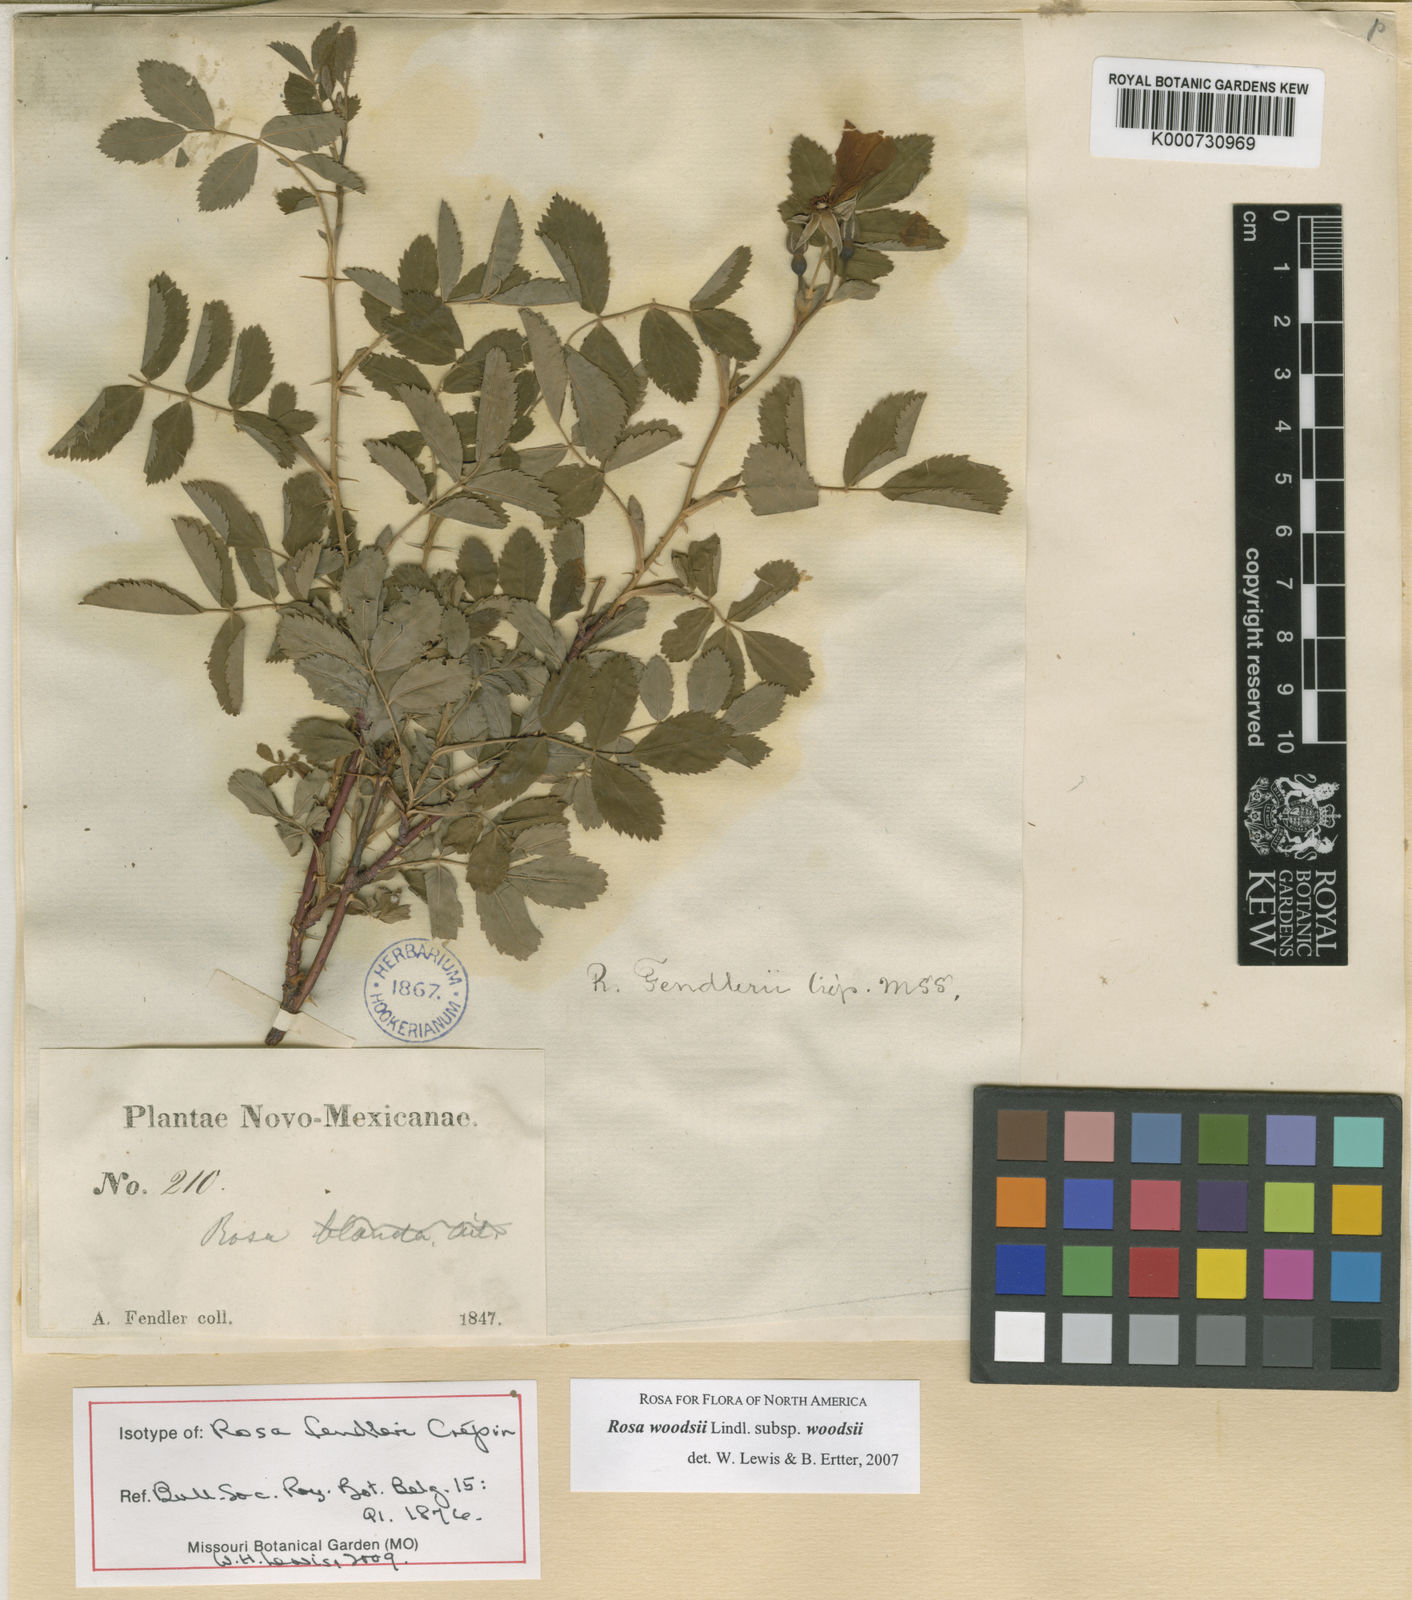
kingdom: Plantae
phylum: Tracheophyta
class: Magnoliopsida
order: Rosales
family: Rosaceae
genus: Rosa
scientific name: Rosa woodsii
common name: Woods's rose
